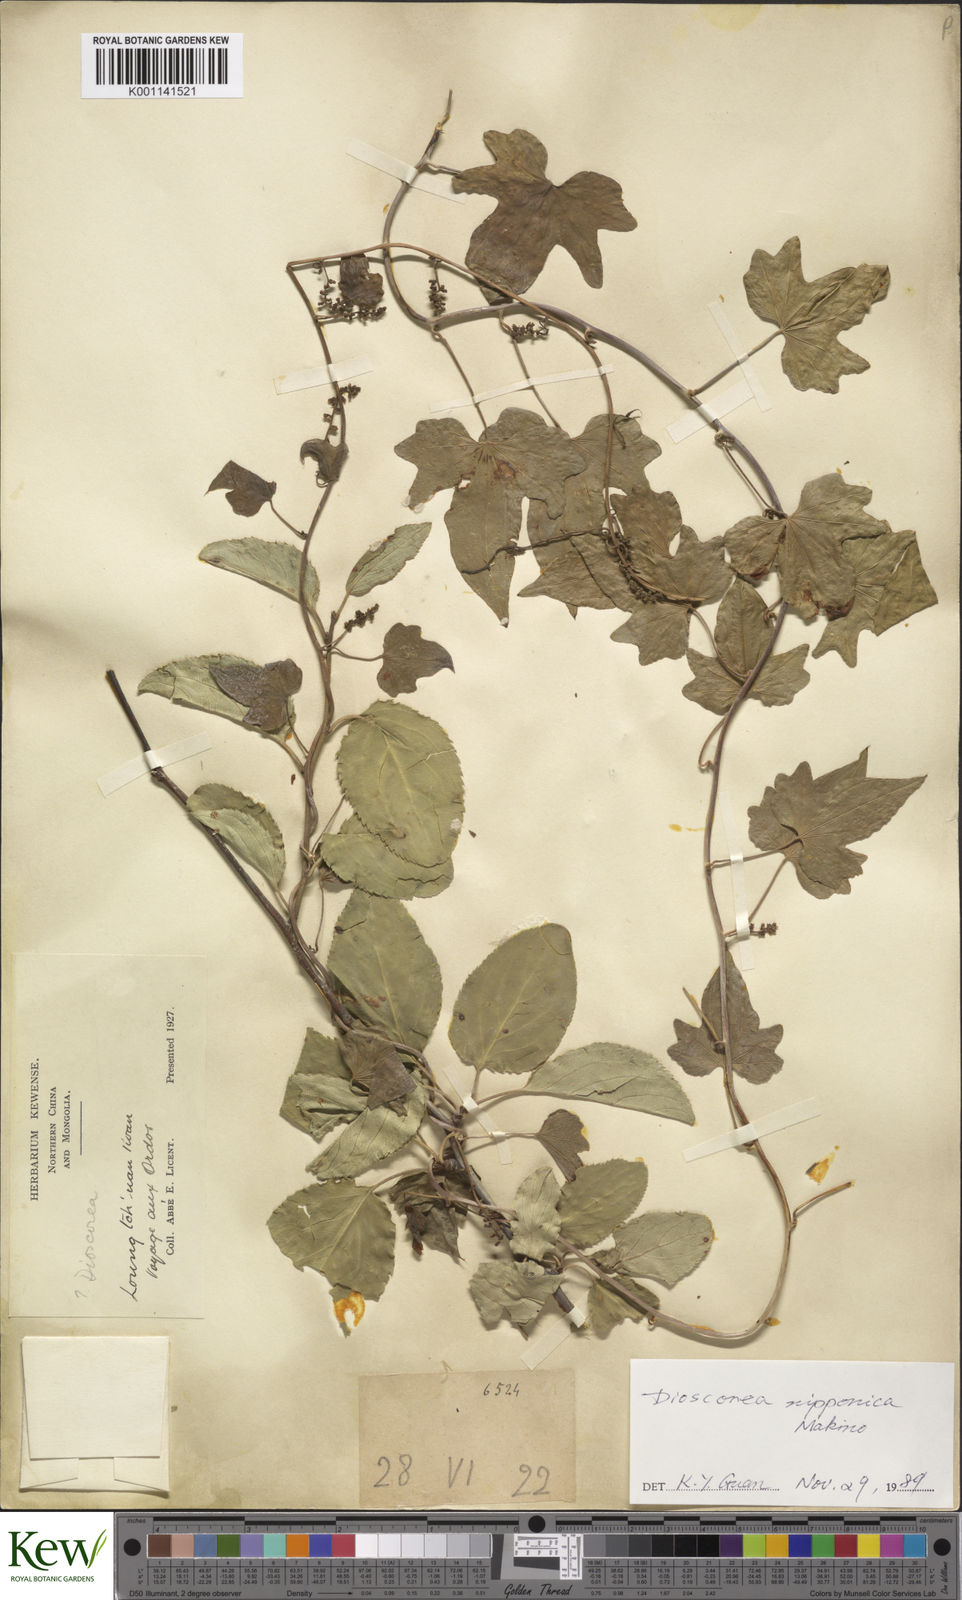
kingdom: Plantae
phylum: Tracheophyta
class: Liliopsida
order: Dioscoreales
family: Dioscoreaceae
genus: Dioscorea
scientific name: Dioscorea nipponica
